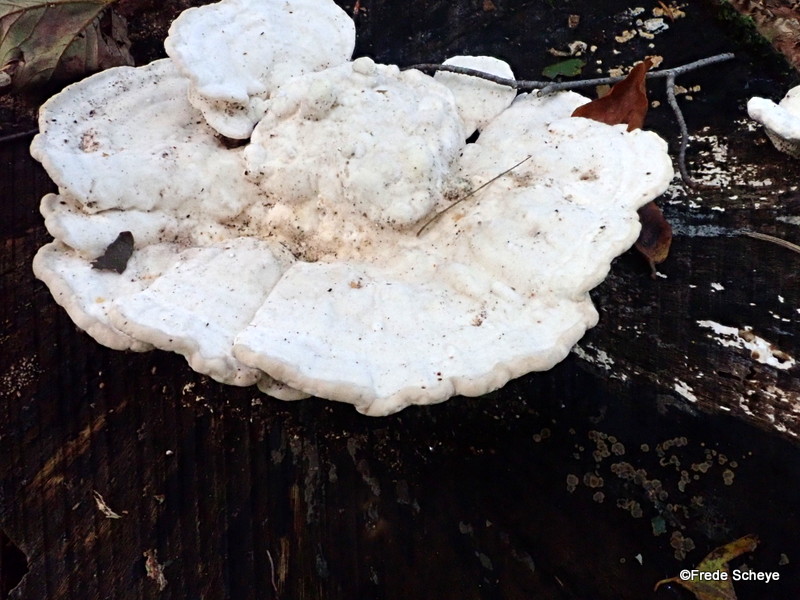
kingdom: Fungi
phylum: Basidiomycota
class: Agaricomycetes
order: Polyporales
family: Polyporaceae
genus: Trametes
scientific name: Trametes gibbosa
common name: puklet læderporesvamp
